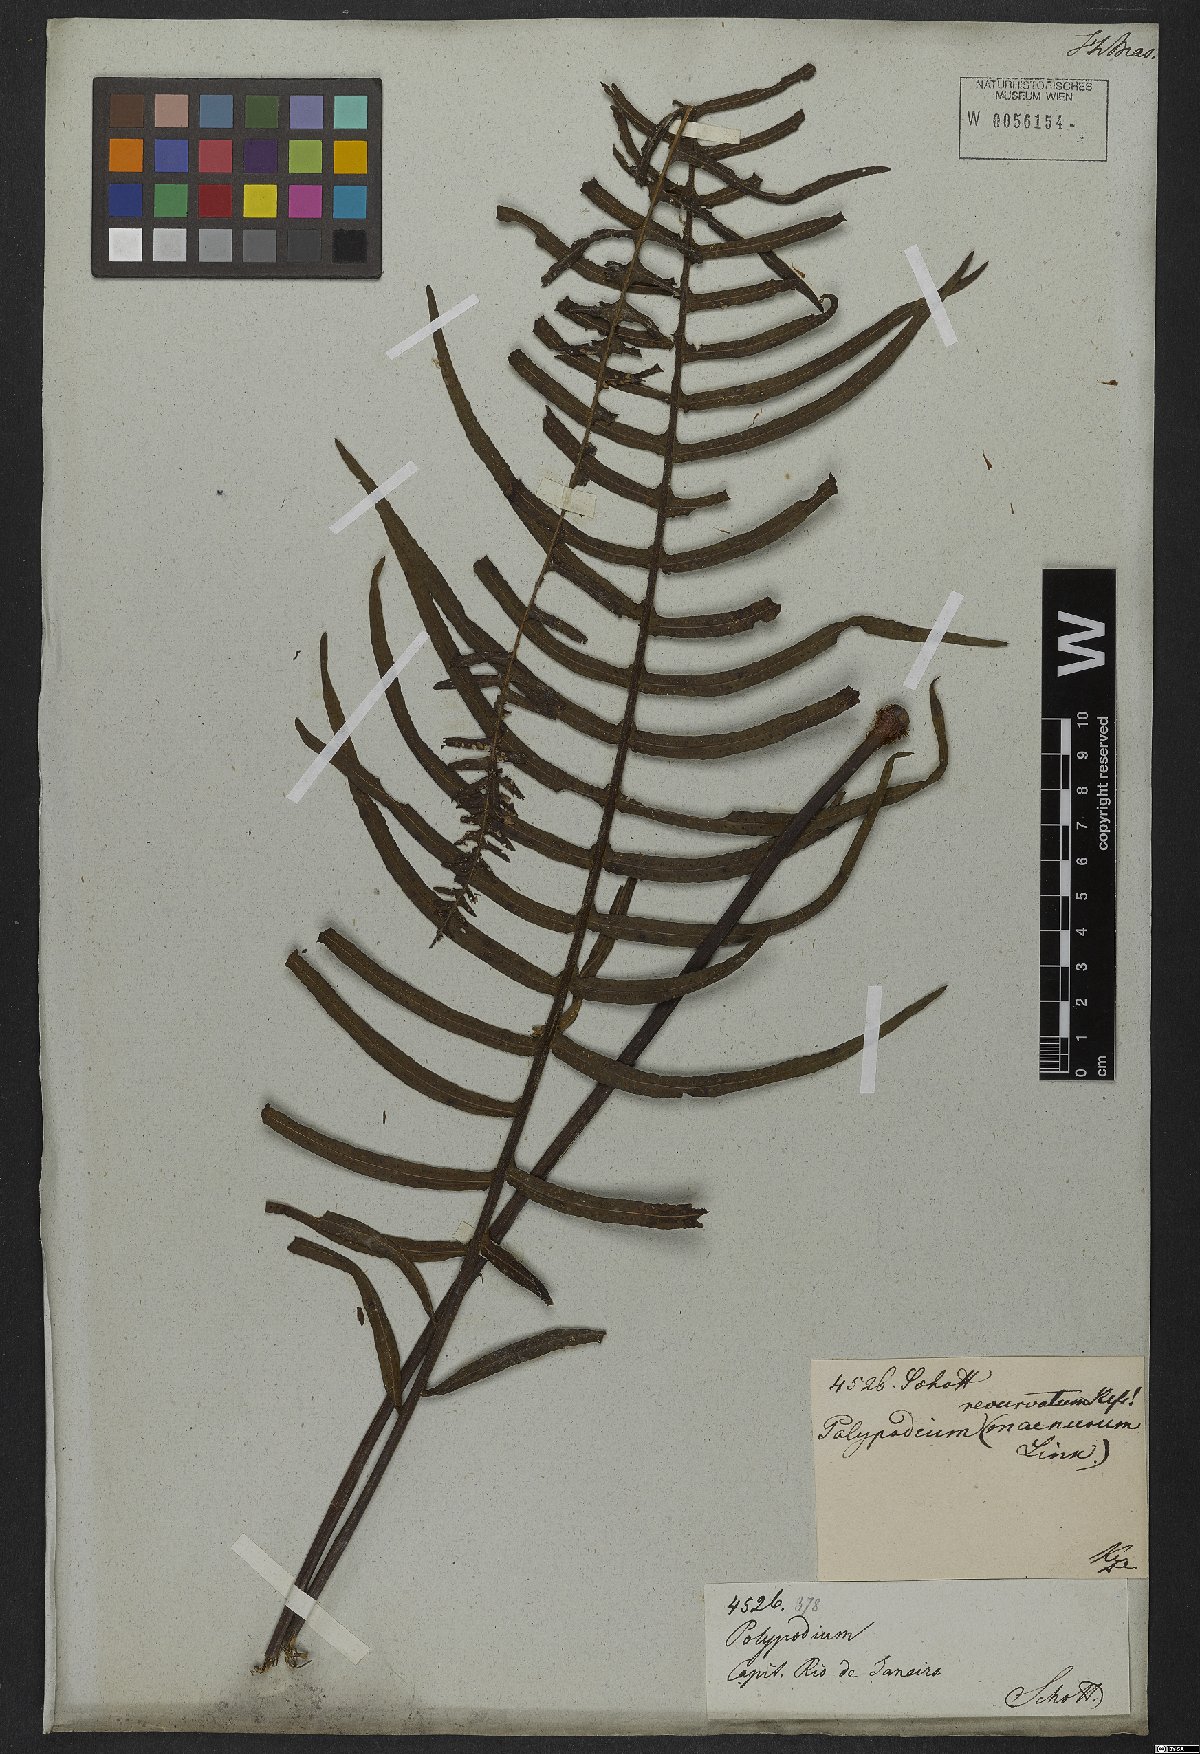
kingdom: Plantae
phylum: Tracheophyta
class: Polypodiopsida
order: Polypodiales
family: Polypodiaceae
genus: Pecluma
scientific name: Pecluma pectinata
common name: Msasa fern
